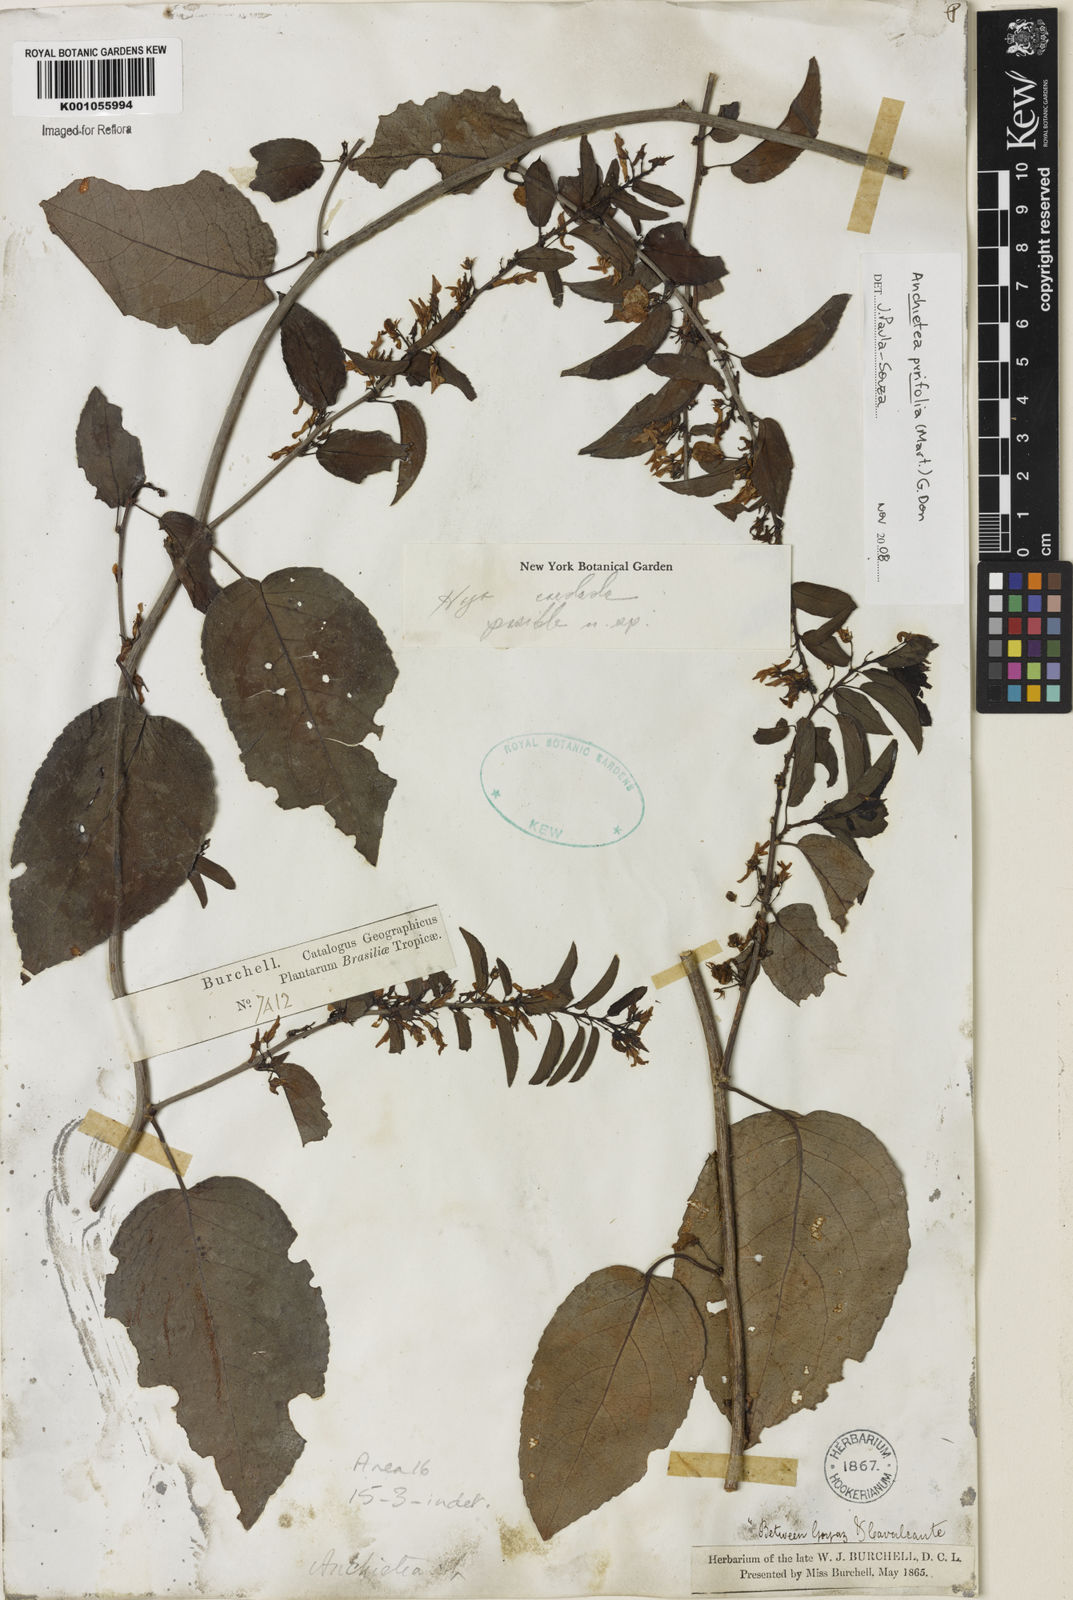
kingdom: Plantae
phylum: Tracheophyta
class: Magnoliopsida
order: Malpighiales
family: Violaceae
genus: Anchietea
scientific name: Anchietea pyrifolia
